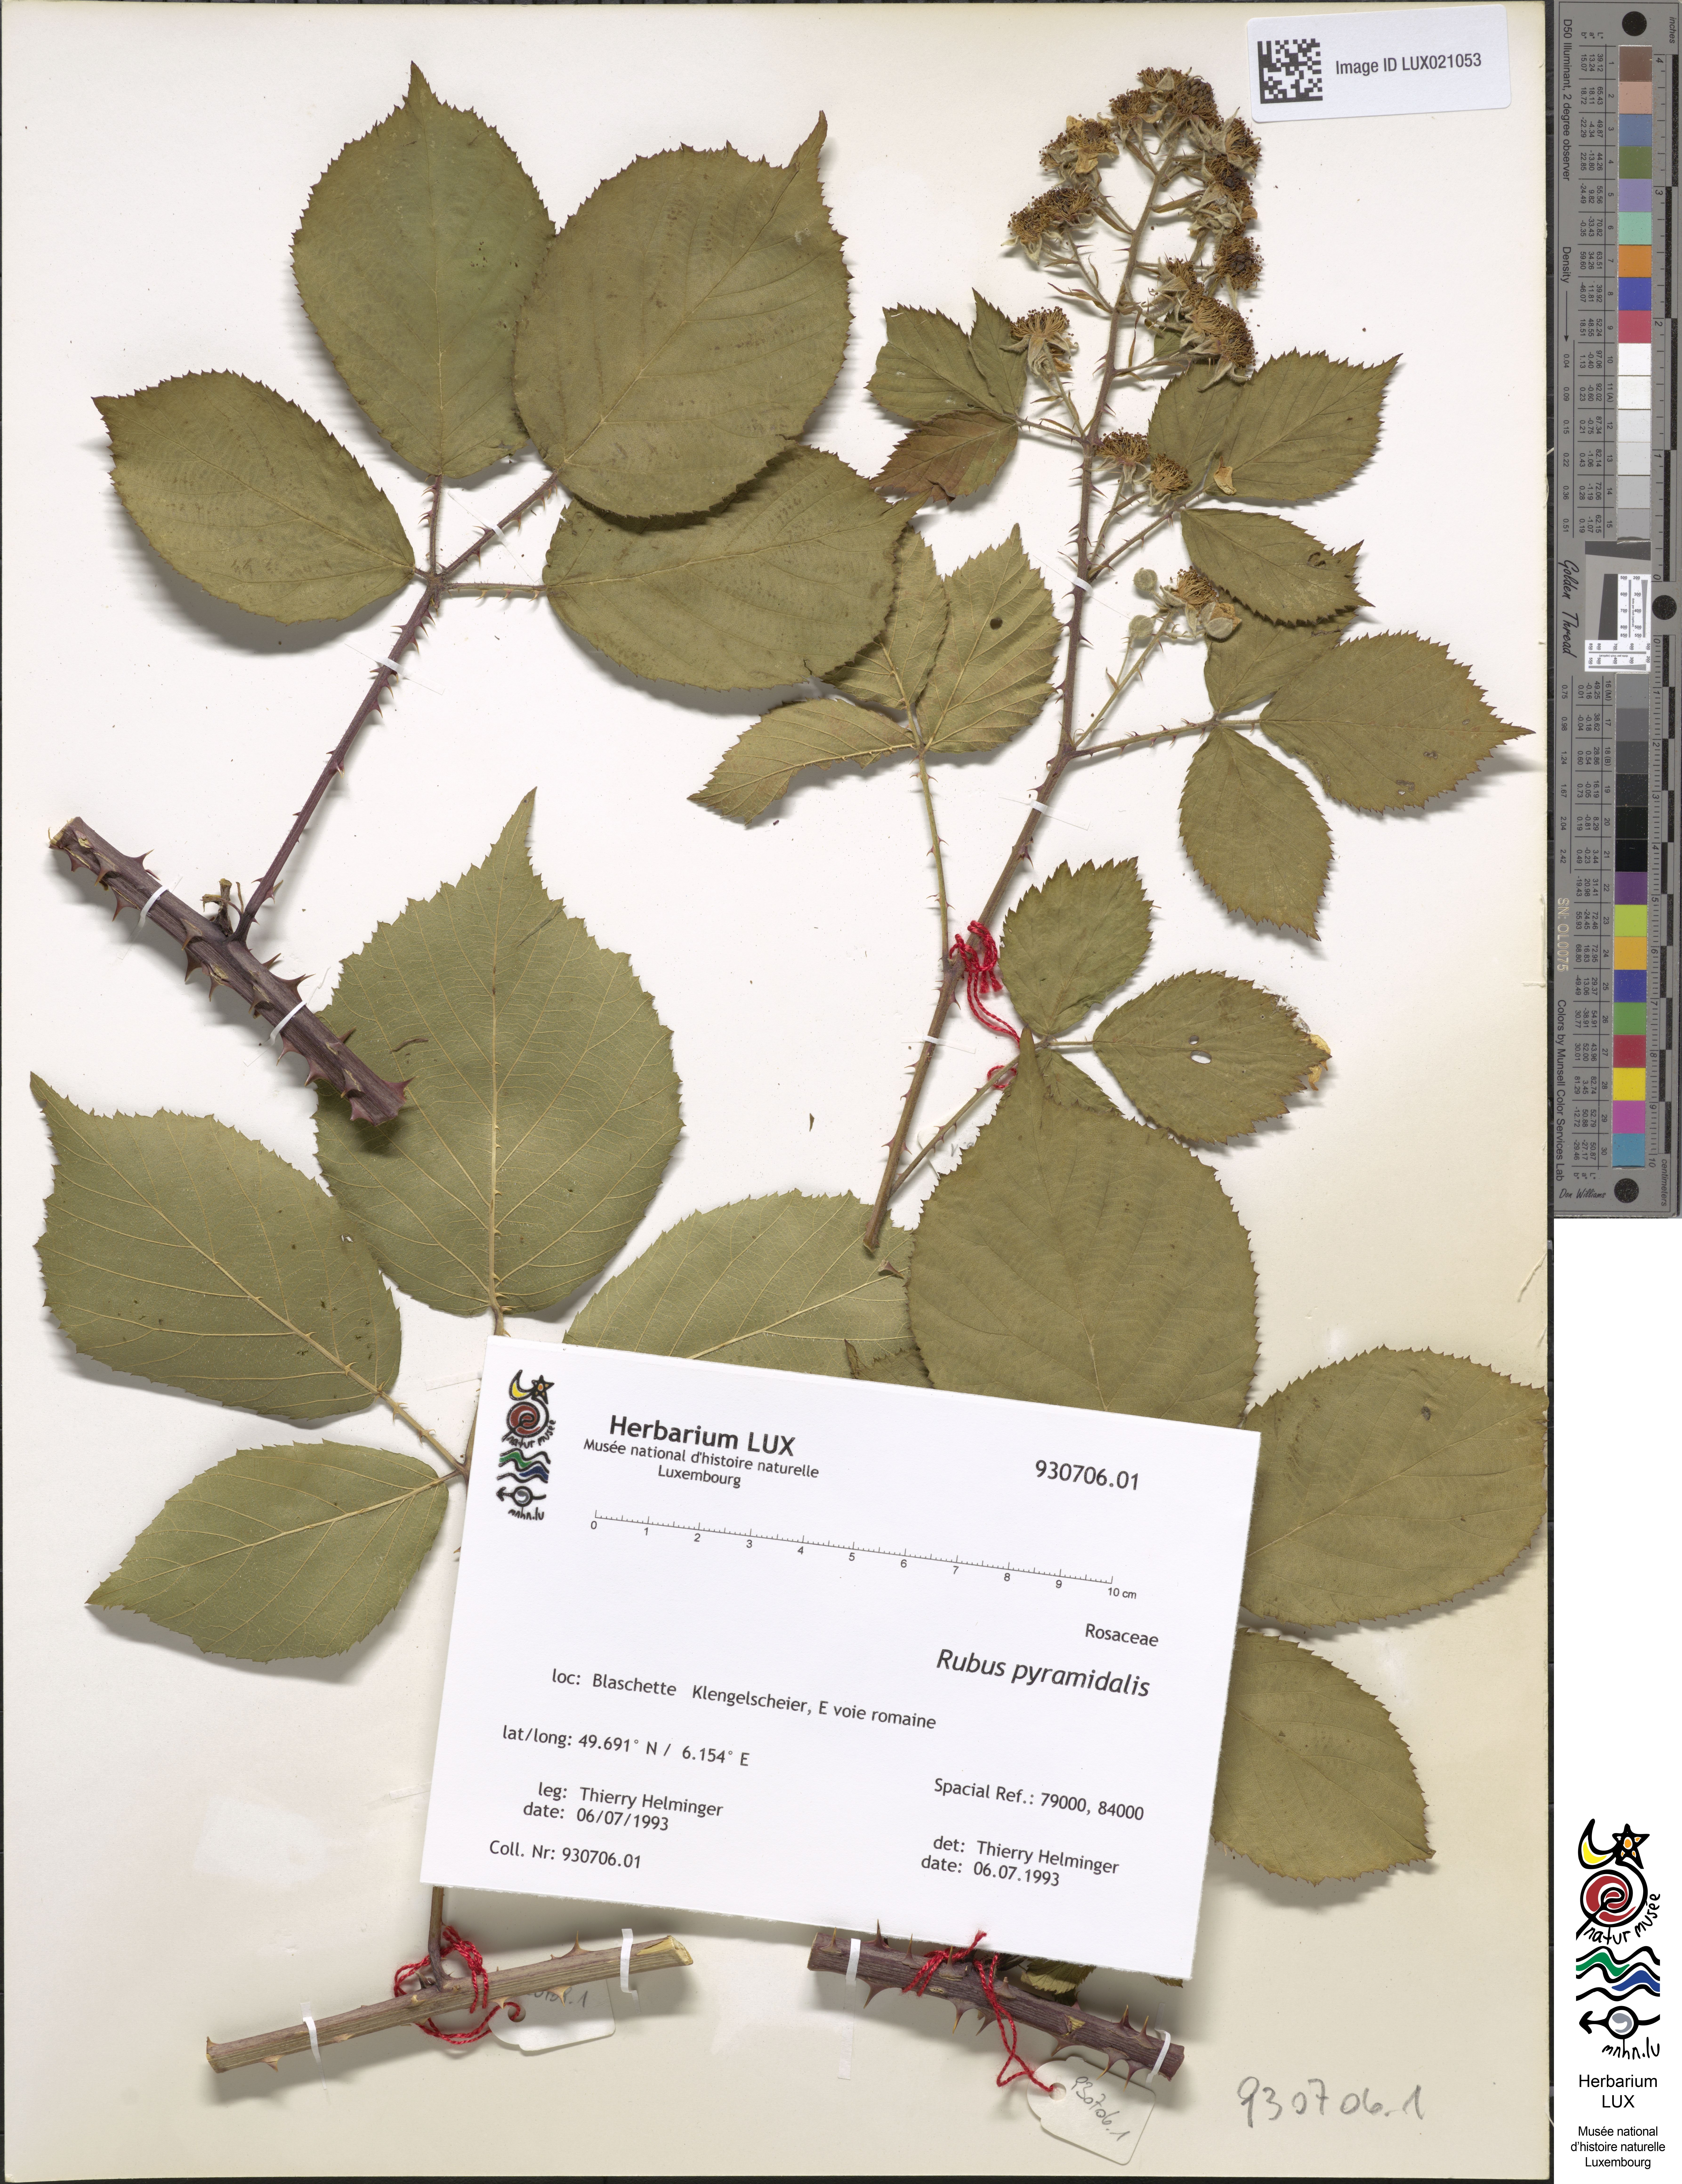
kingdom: Plantae
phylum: Tracheophyta
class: Magnoliopsida
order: Rosales
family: Rosaceae
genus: Rubus
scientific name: Rubus umbrosus
